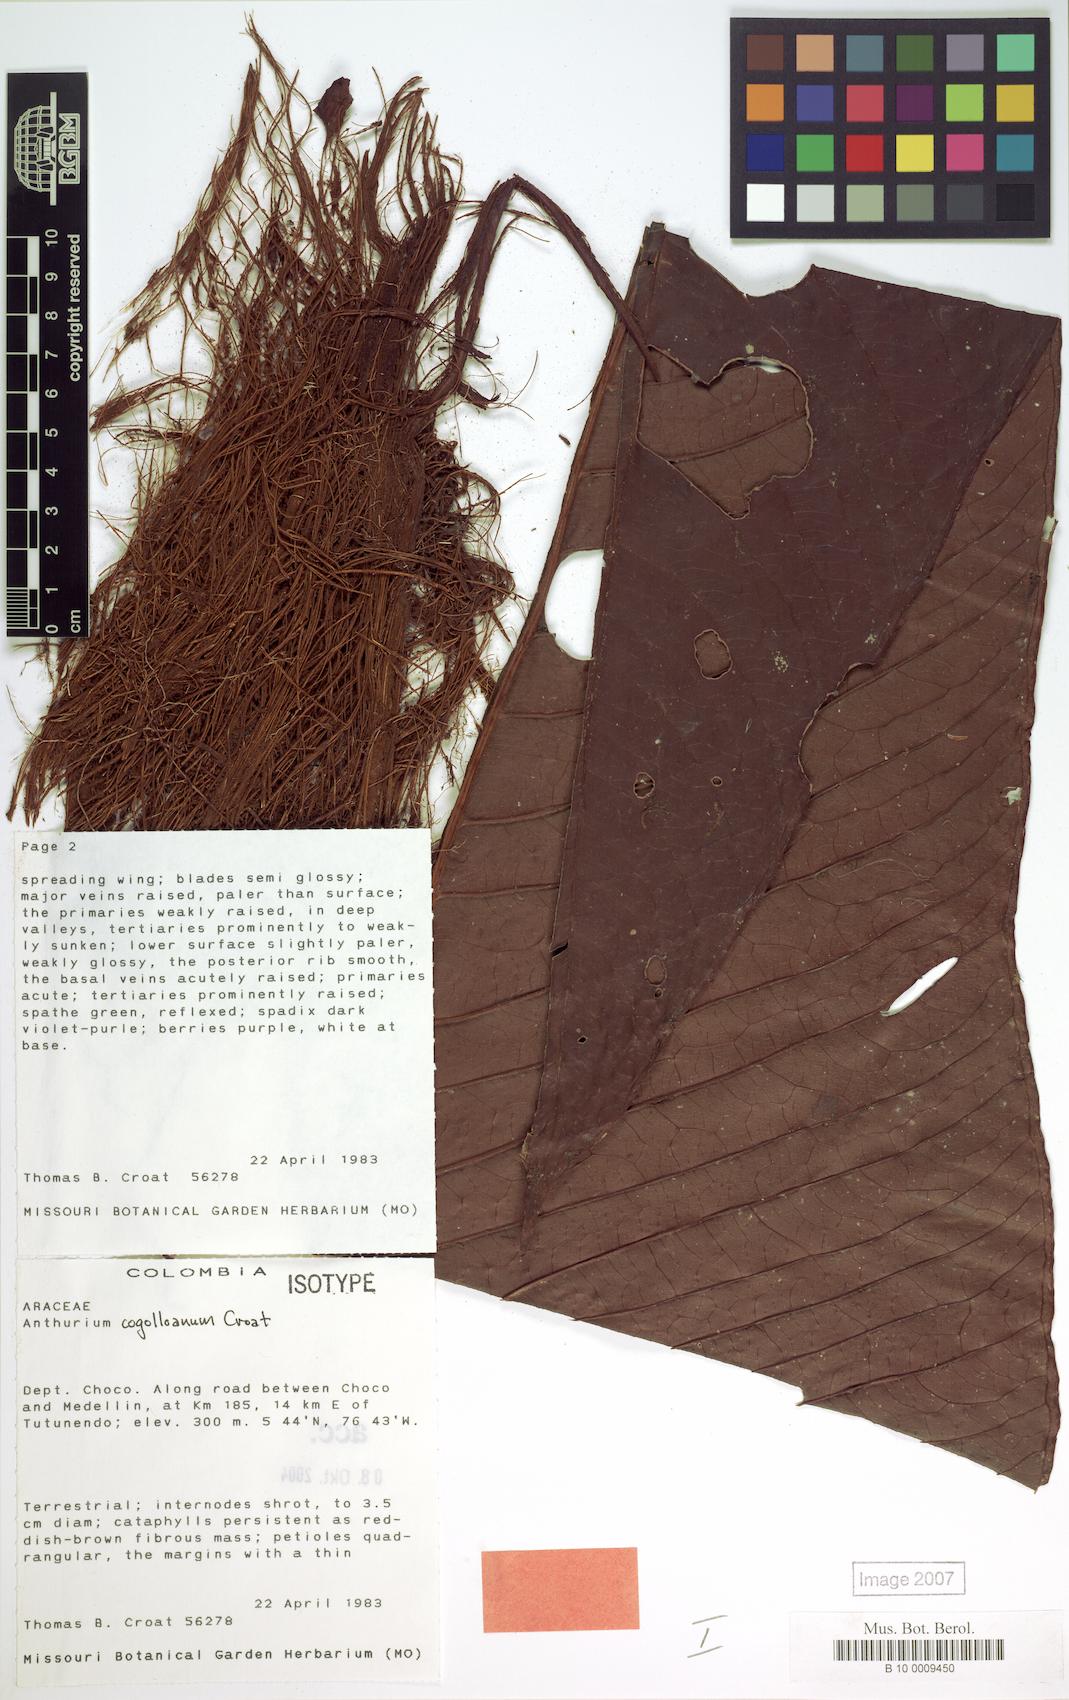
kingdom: Plantae
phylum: Tracheophyta
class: Liliopsida
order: Alismatales
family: Araceae
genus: Anthurium
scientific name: Anthurium cogolloanum
